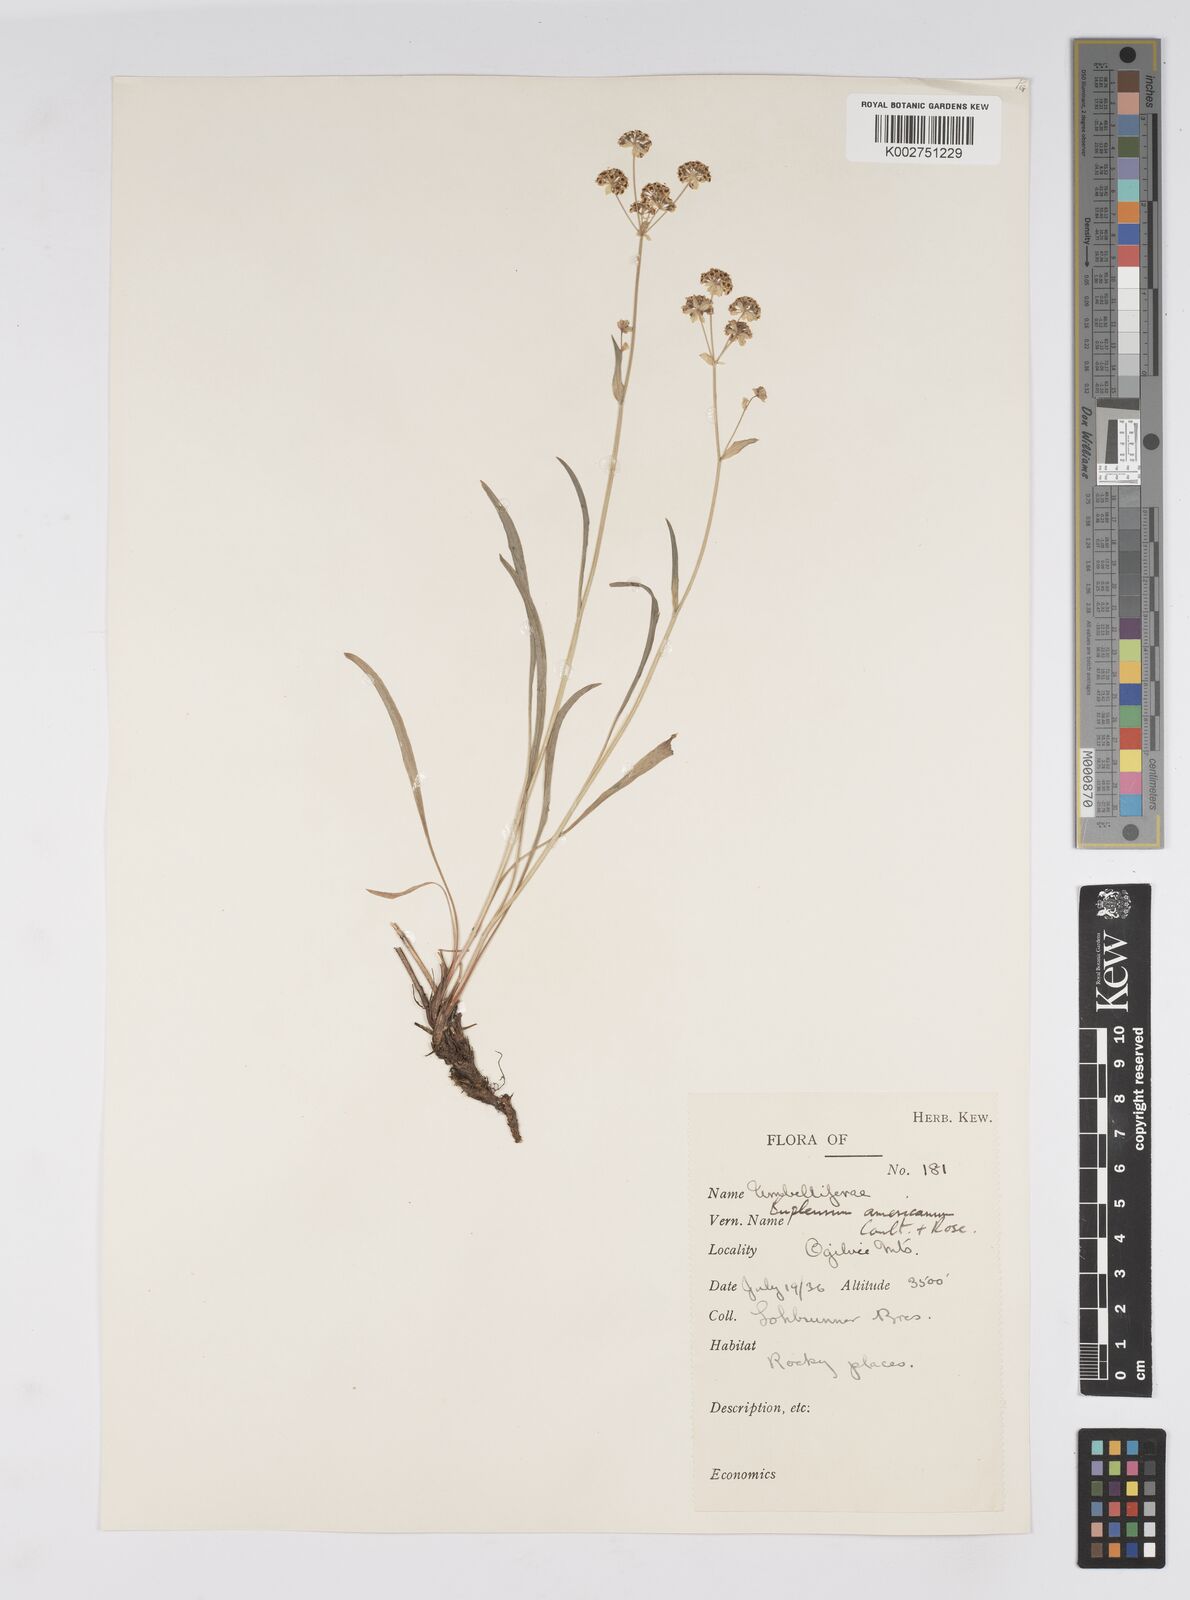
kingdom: Plantae
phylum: Tracheophyta
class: Magnoliopsida
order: Apiales
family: Apiaceae
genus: Bupleurum
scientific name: Bupleurum americanum
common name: American thoroughwax
